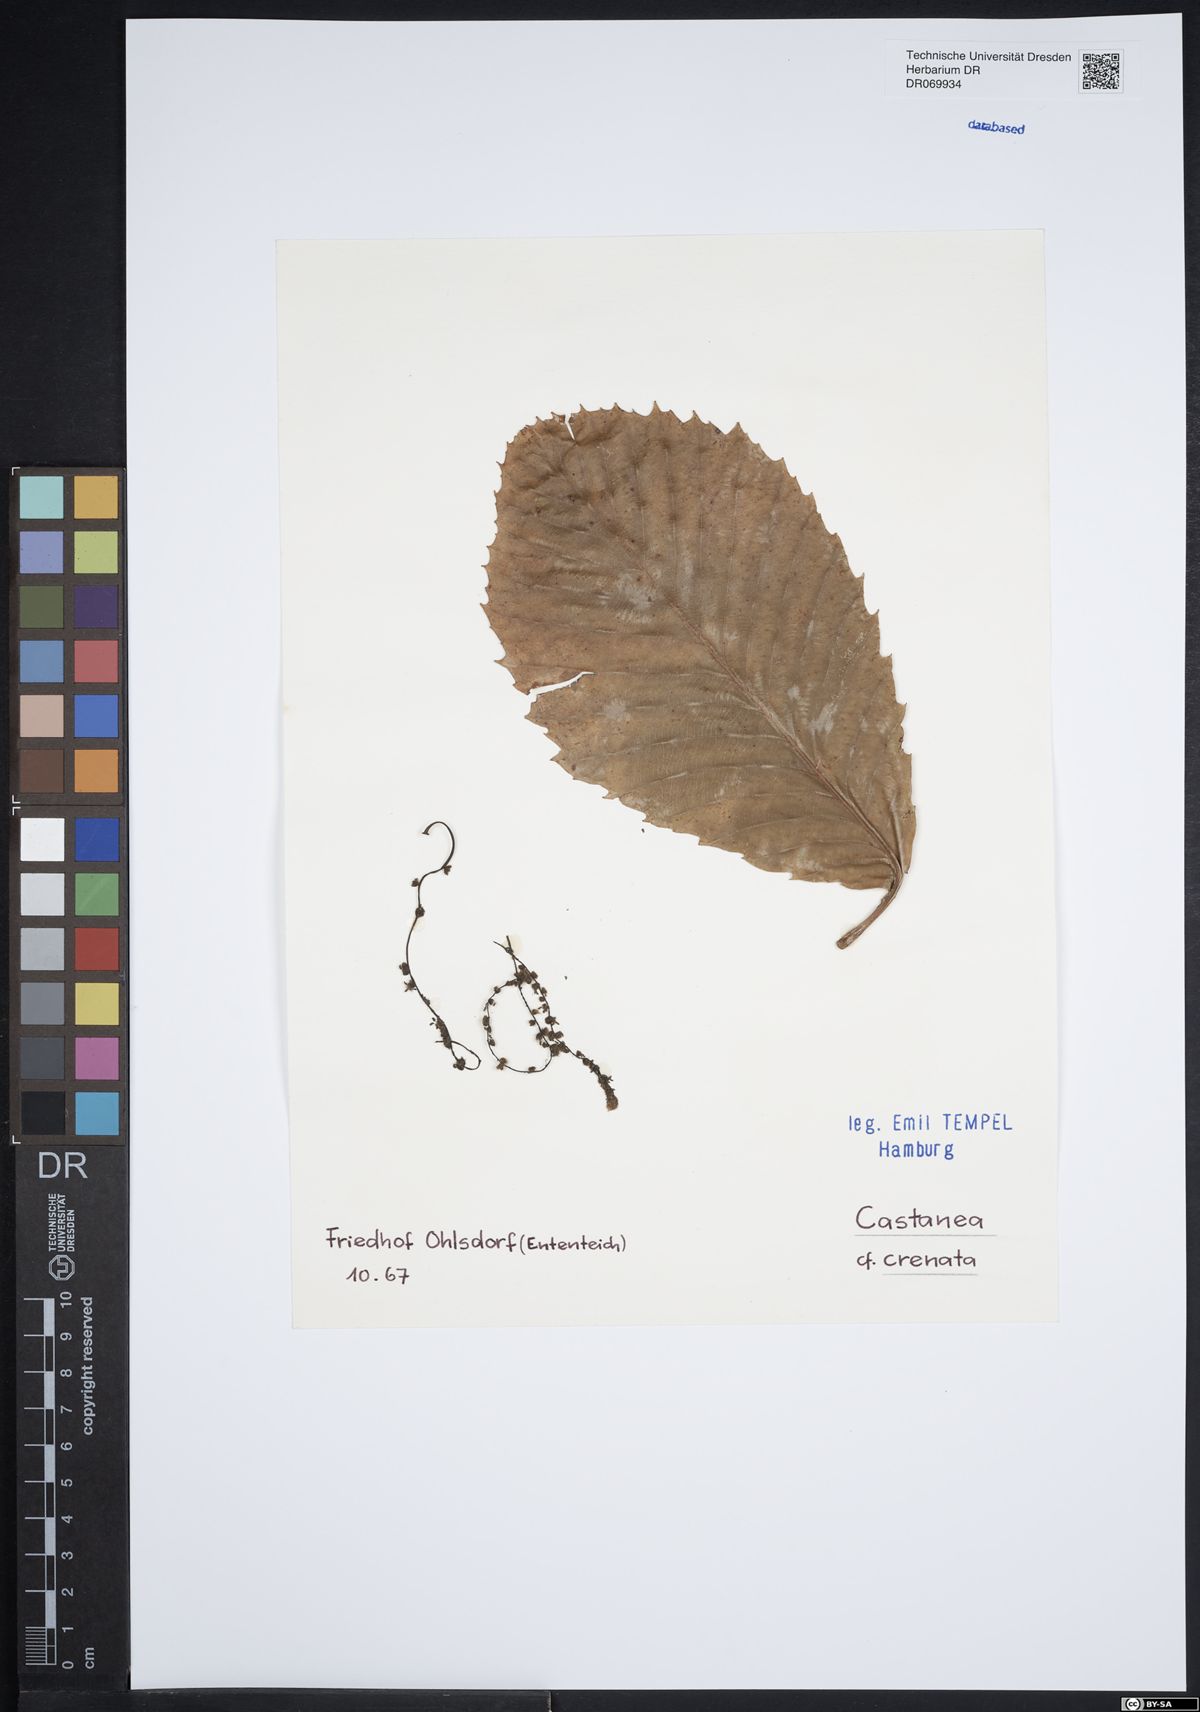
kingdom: Plantae
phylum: Tracheophyta
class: Magnoliopsida
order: Fagales
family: Fagaceae
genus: Castanea
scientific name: Castanea crenata
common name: Japanese chestnut
